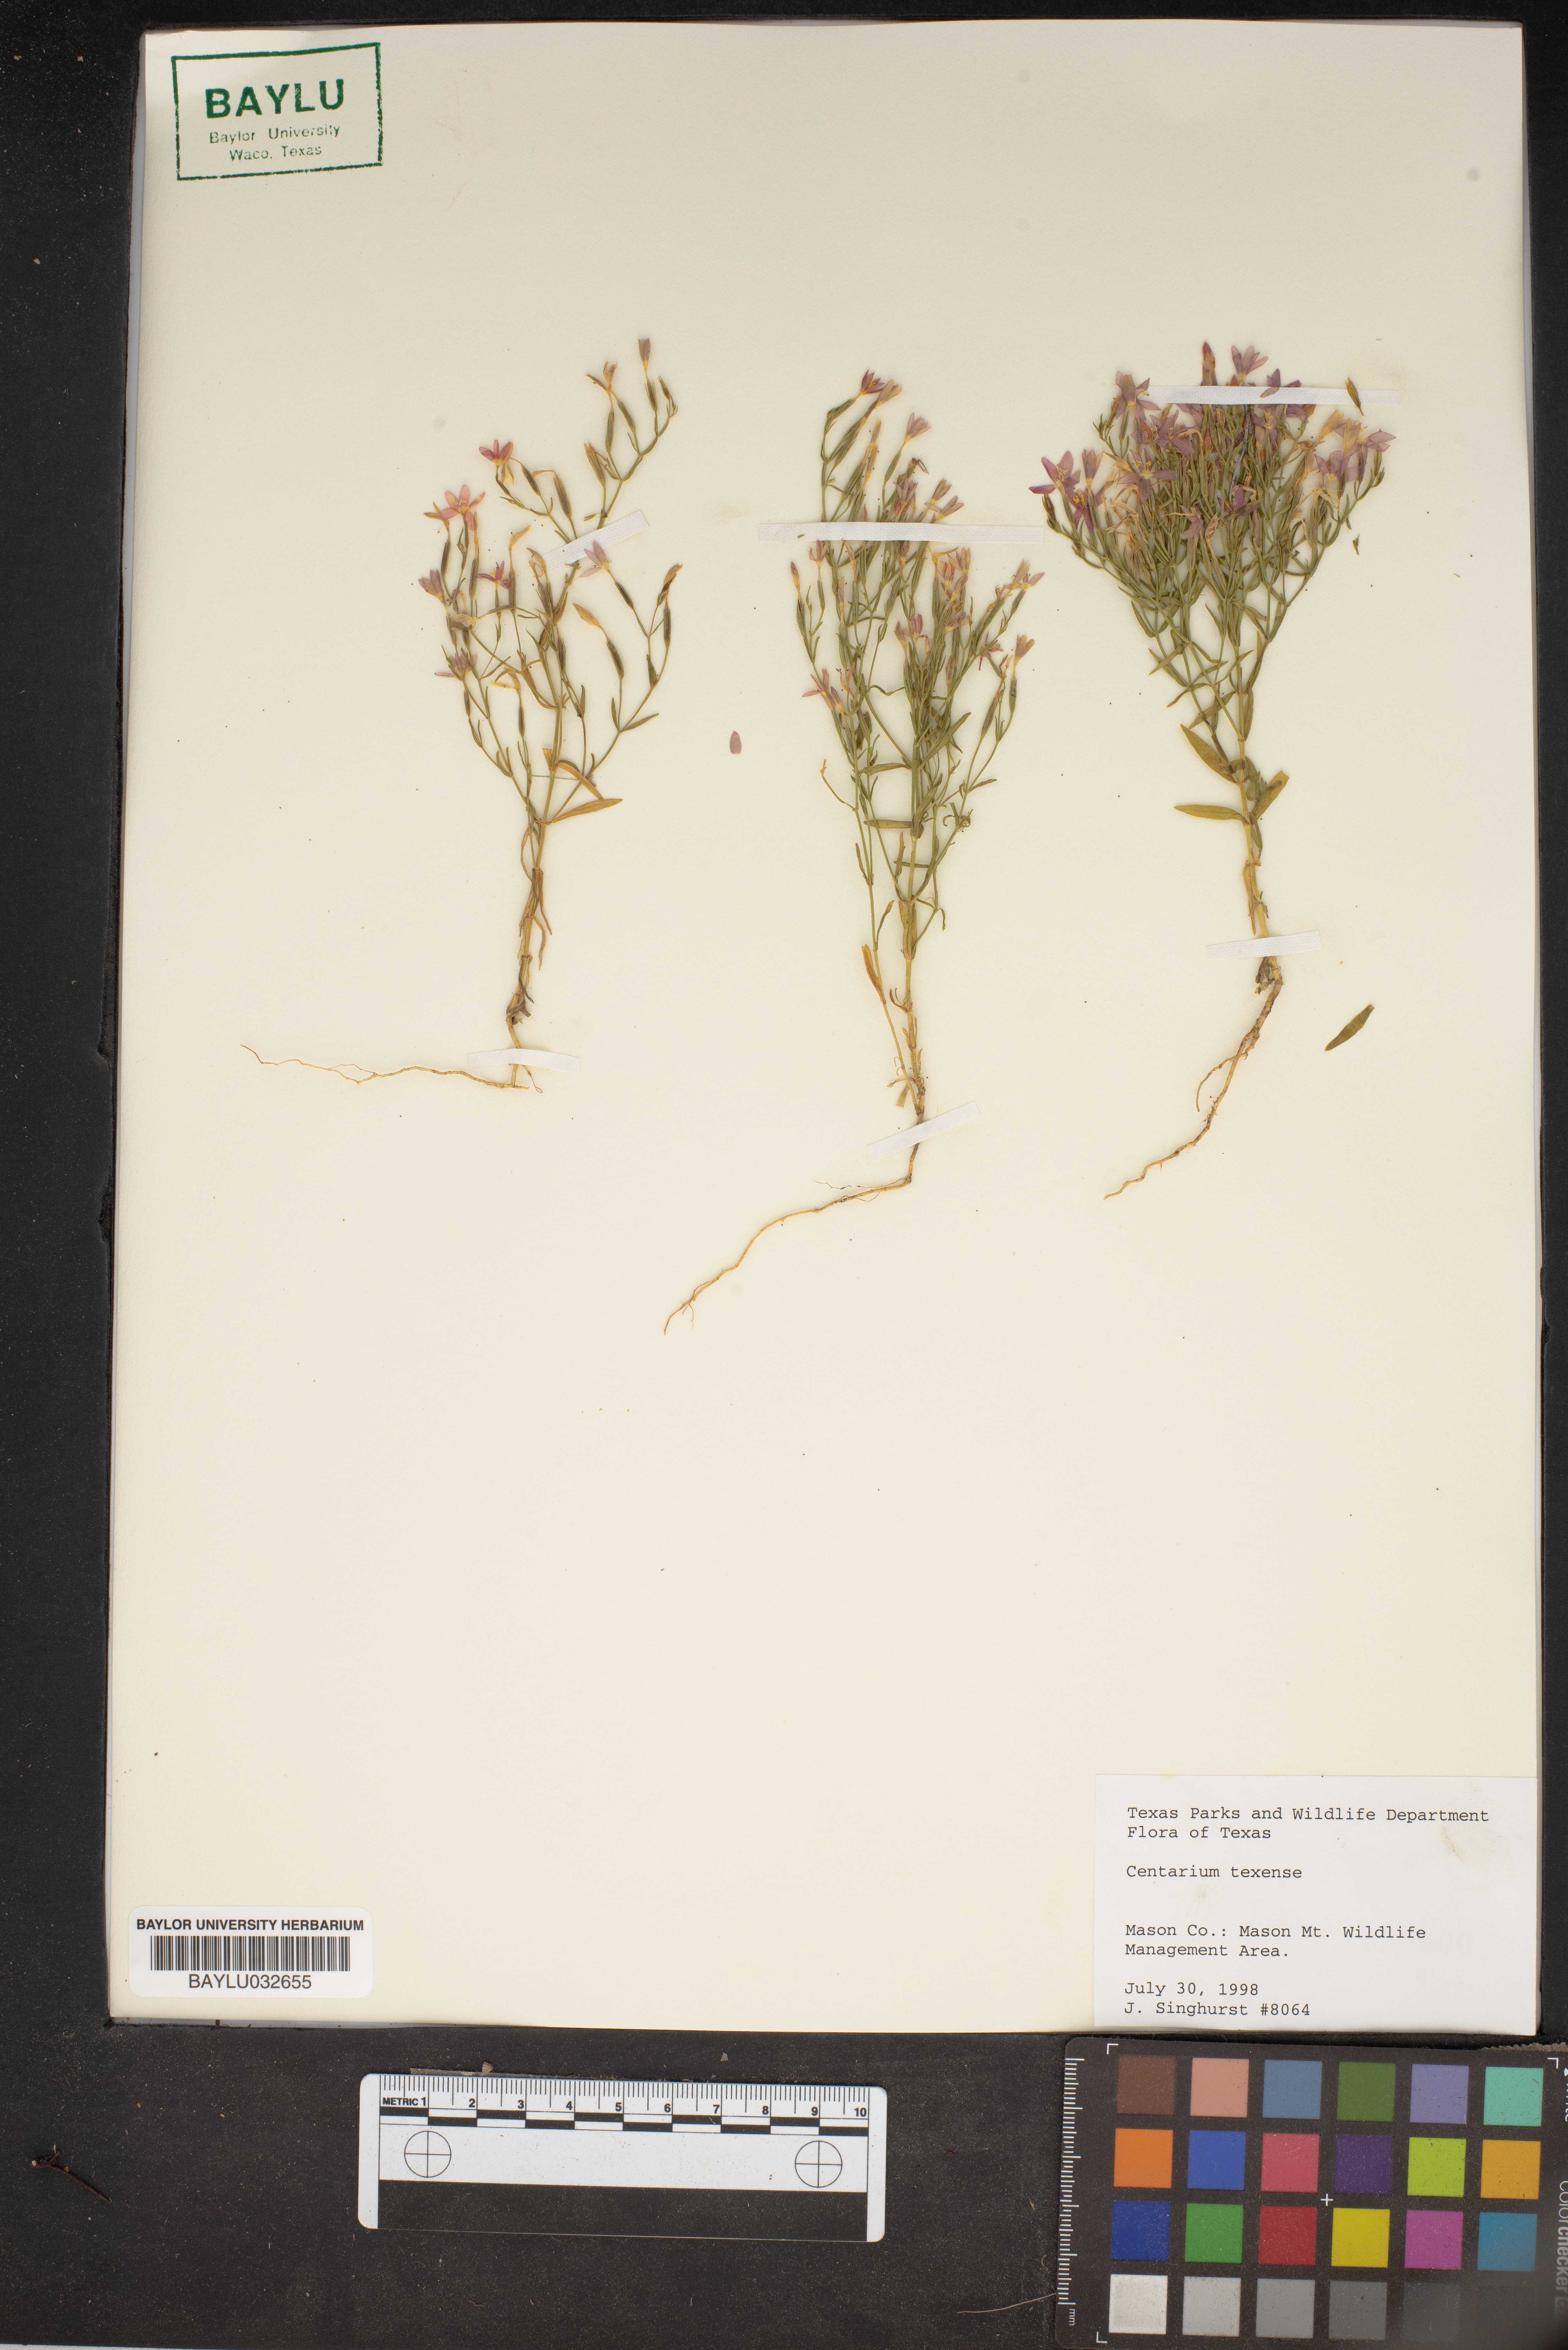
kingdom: Plantae
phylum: Tracheophyta
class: Magnoliopsida
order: Gentianales
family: Gentianaceae
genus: Zeltnera
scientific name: Zeltnera texensis
